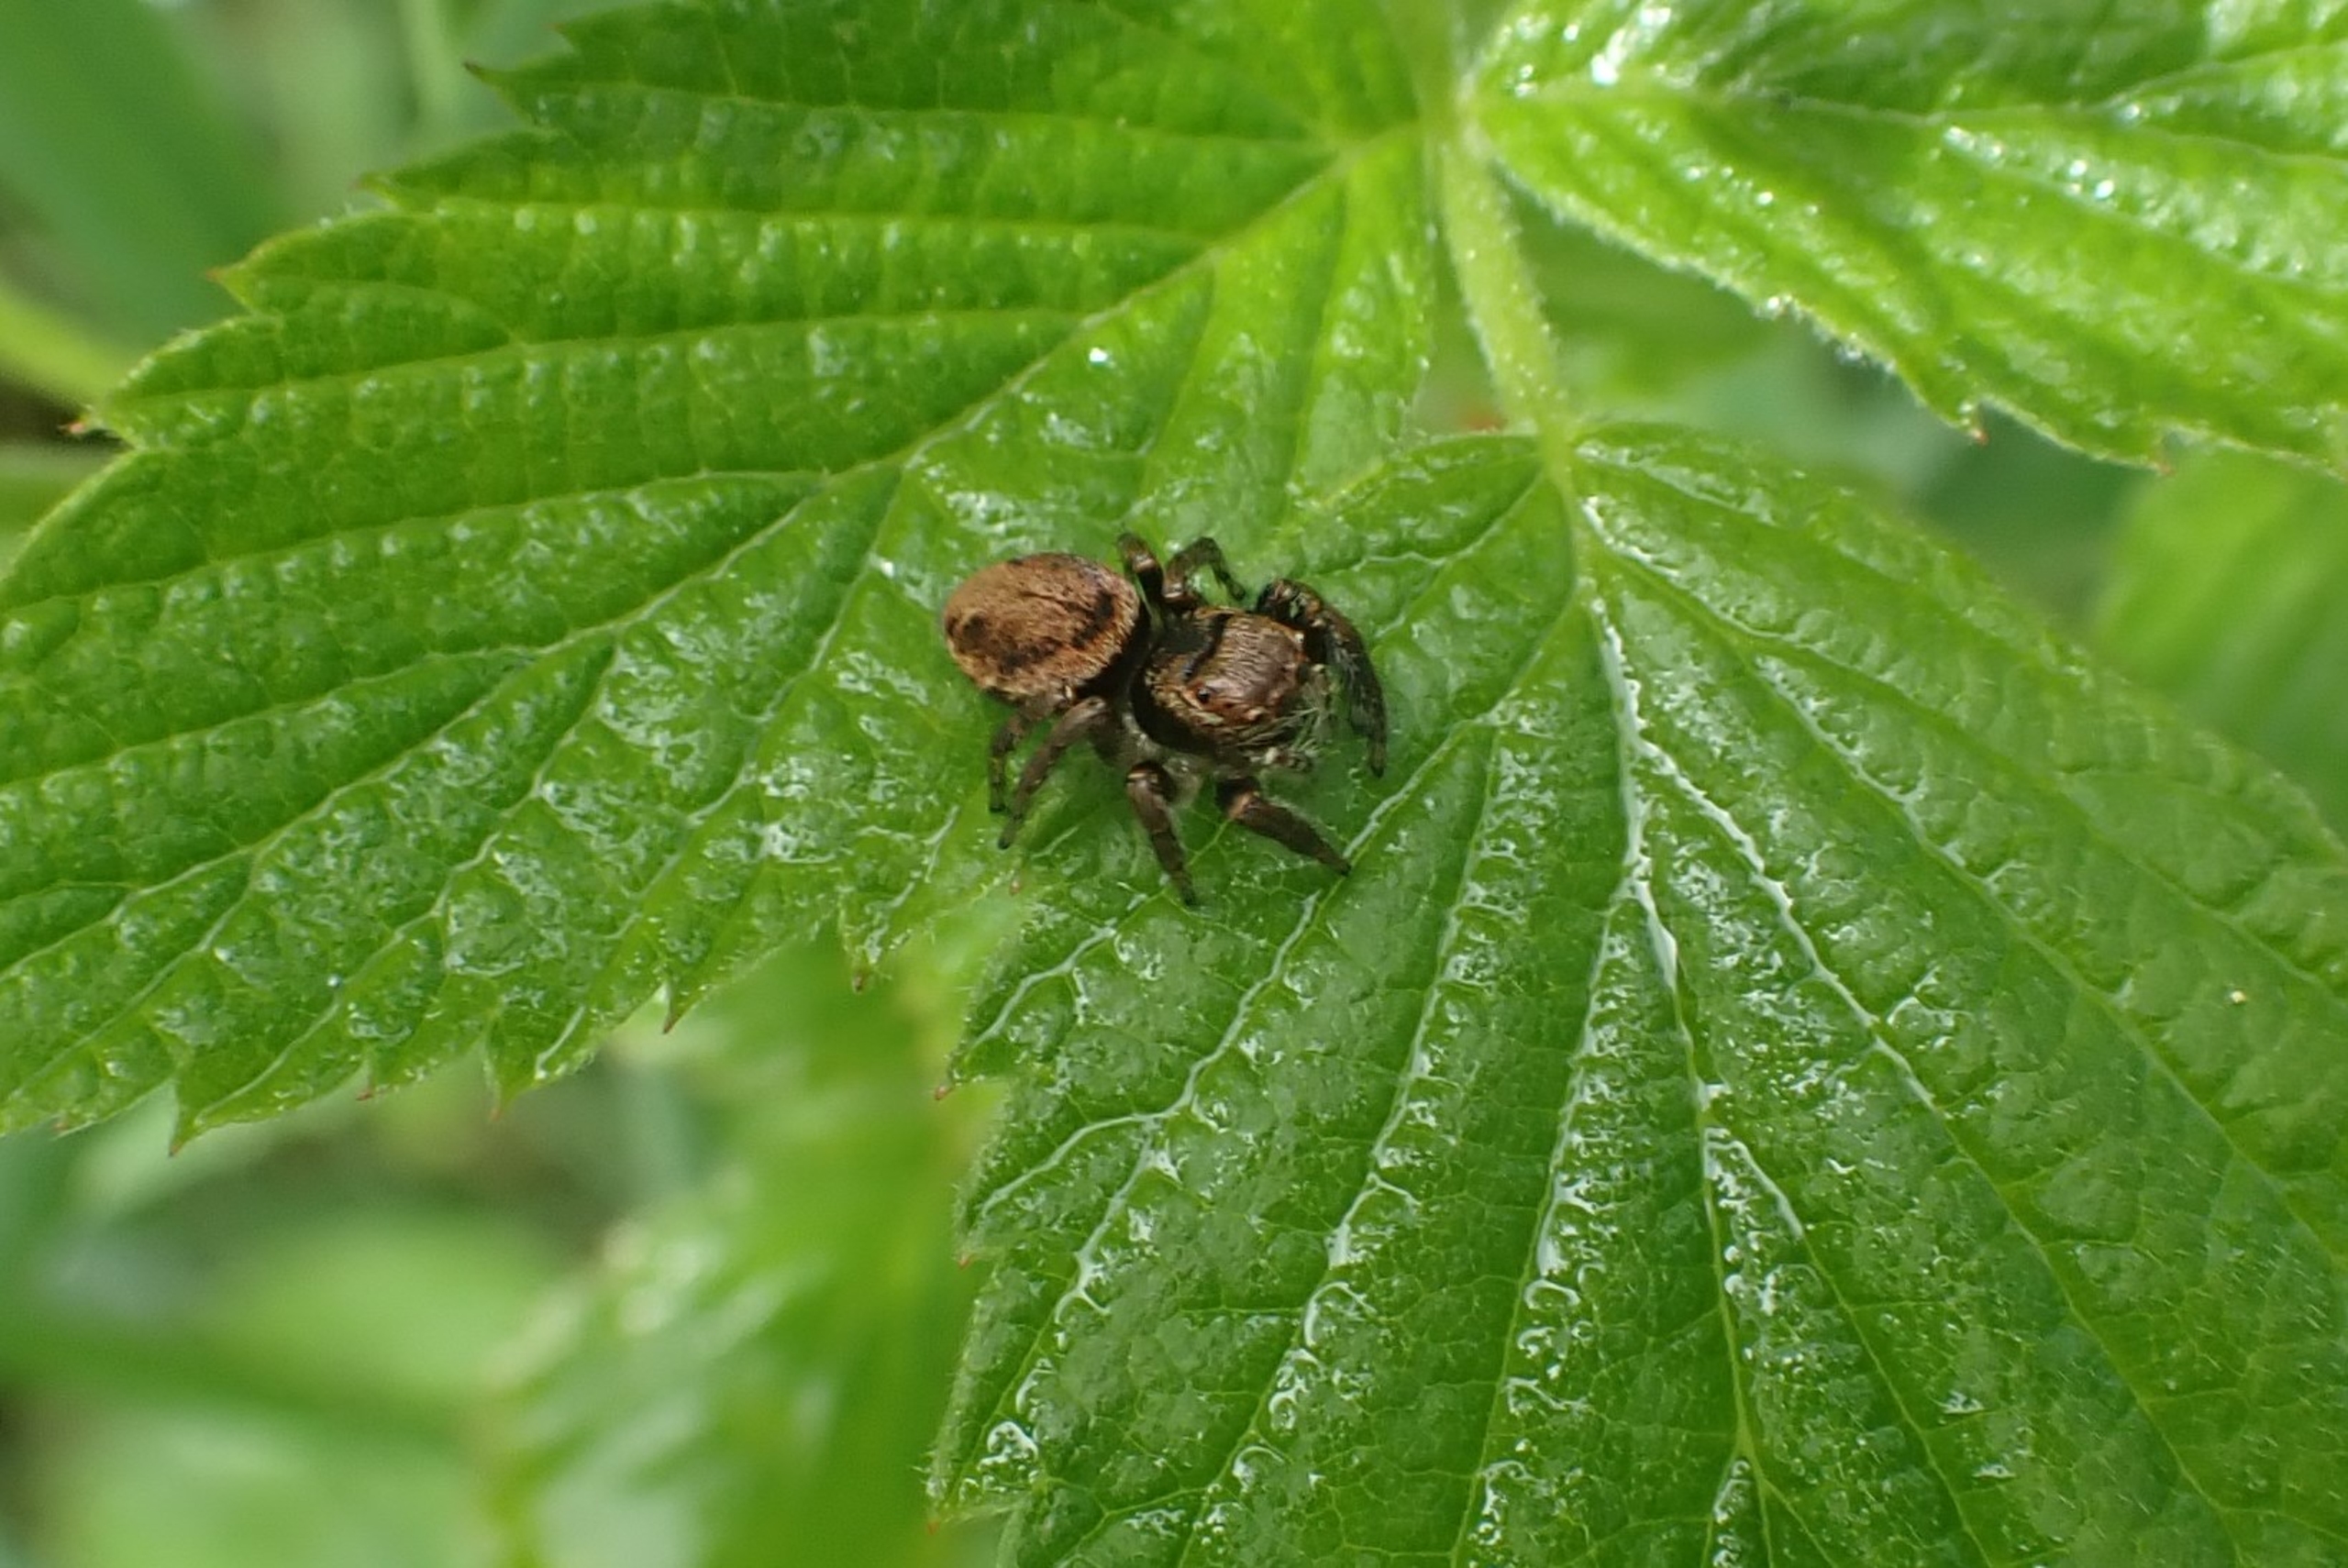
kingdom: Animalia
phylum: Arthropoda
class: Arachnida
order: Araneae
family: Salticidae
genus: Evarcha
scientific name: Evarcha falcata
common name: Broget springedderkop
